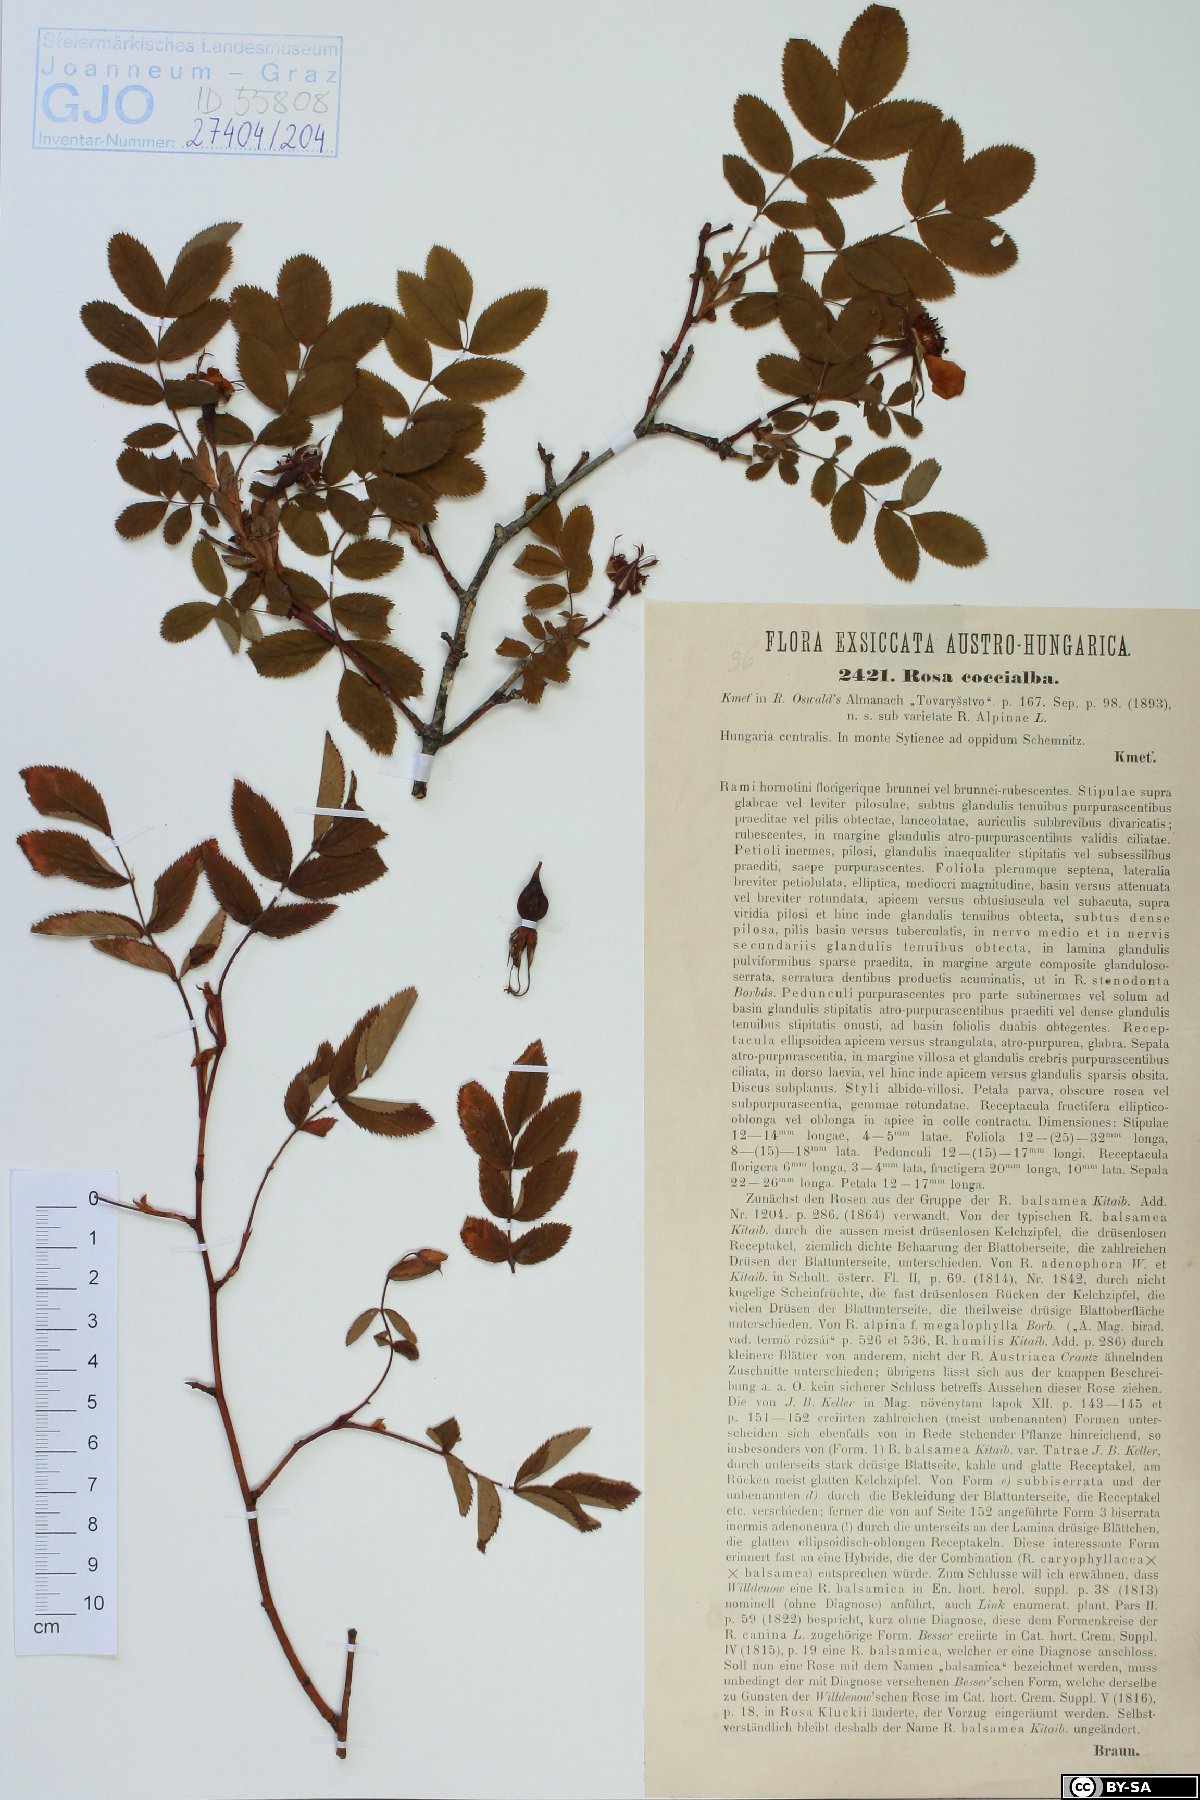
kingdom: Plantae
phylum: Tracheophyta
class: Magnoliopsida
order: Rosales
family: Rosaceae
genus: Rosa
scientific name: Rosa pendulina
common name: Alpine rose
